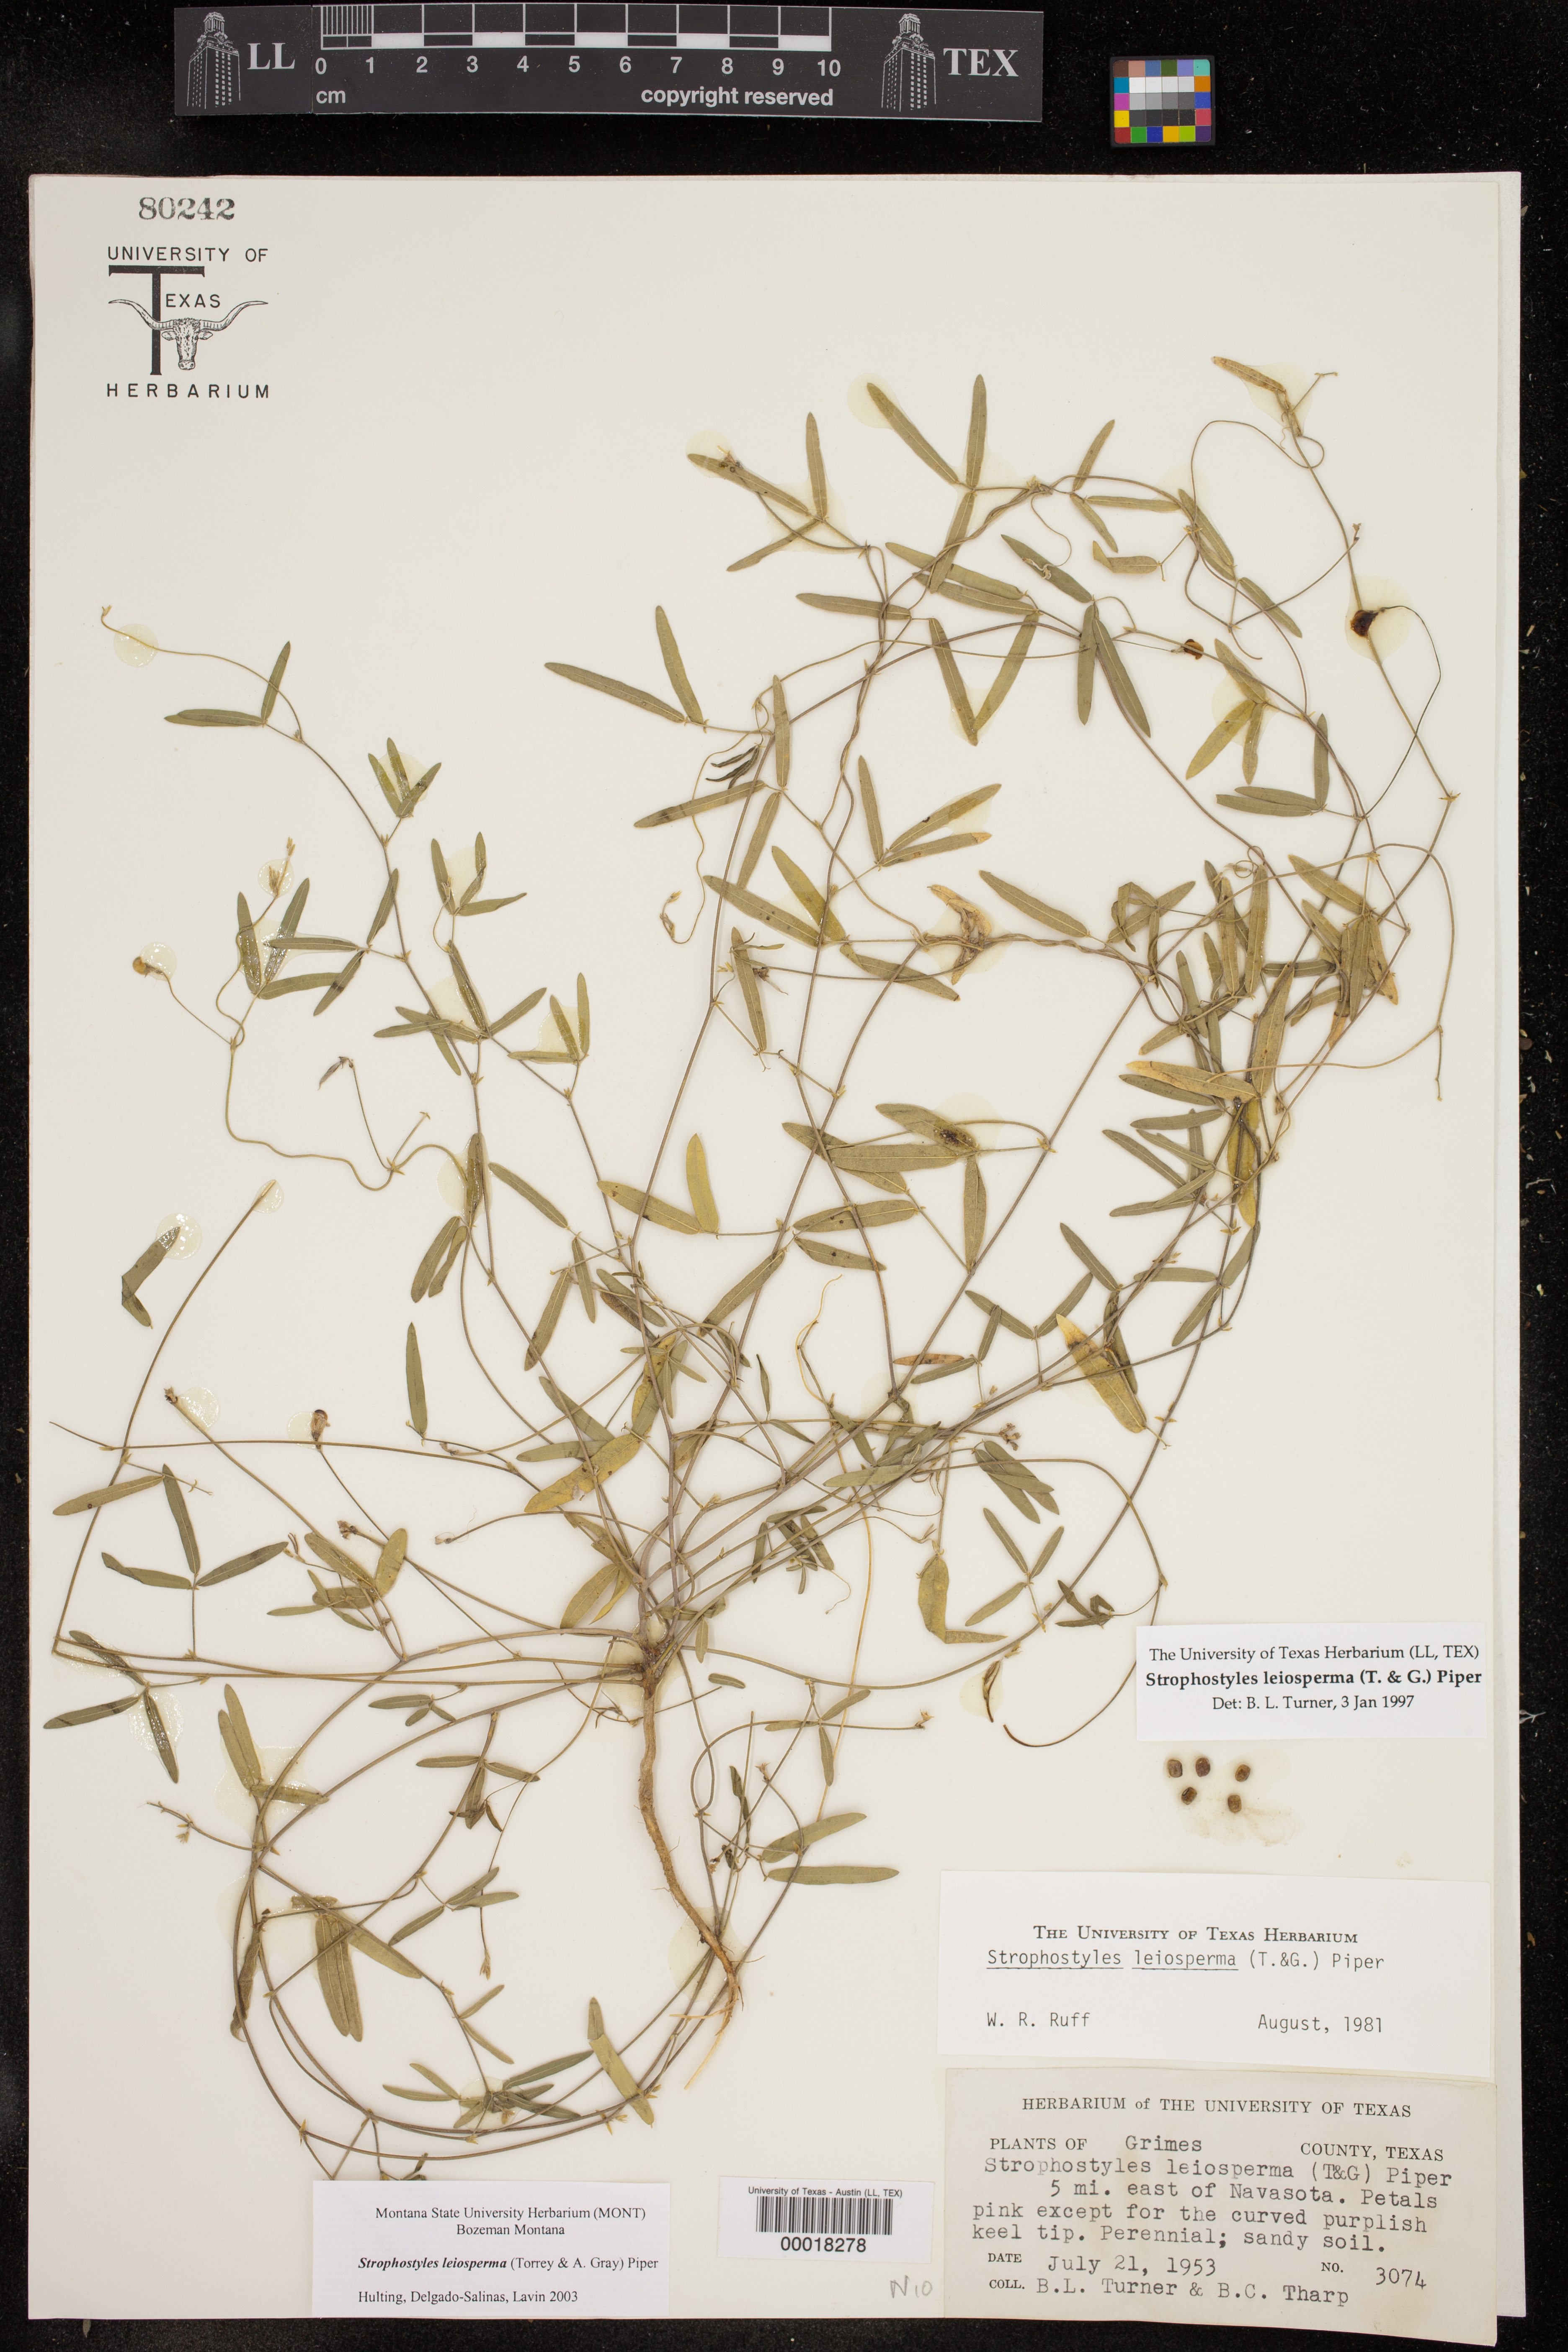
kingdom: Plantae
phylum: Tracheophyta
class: Magnoliopsida
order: Fabales
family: Fabaceae
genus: Strophostyles
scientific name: Strophostyles leiosperma
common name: Smooth-seed wild bean
